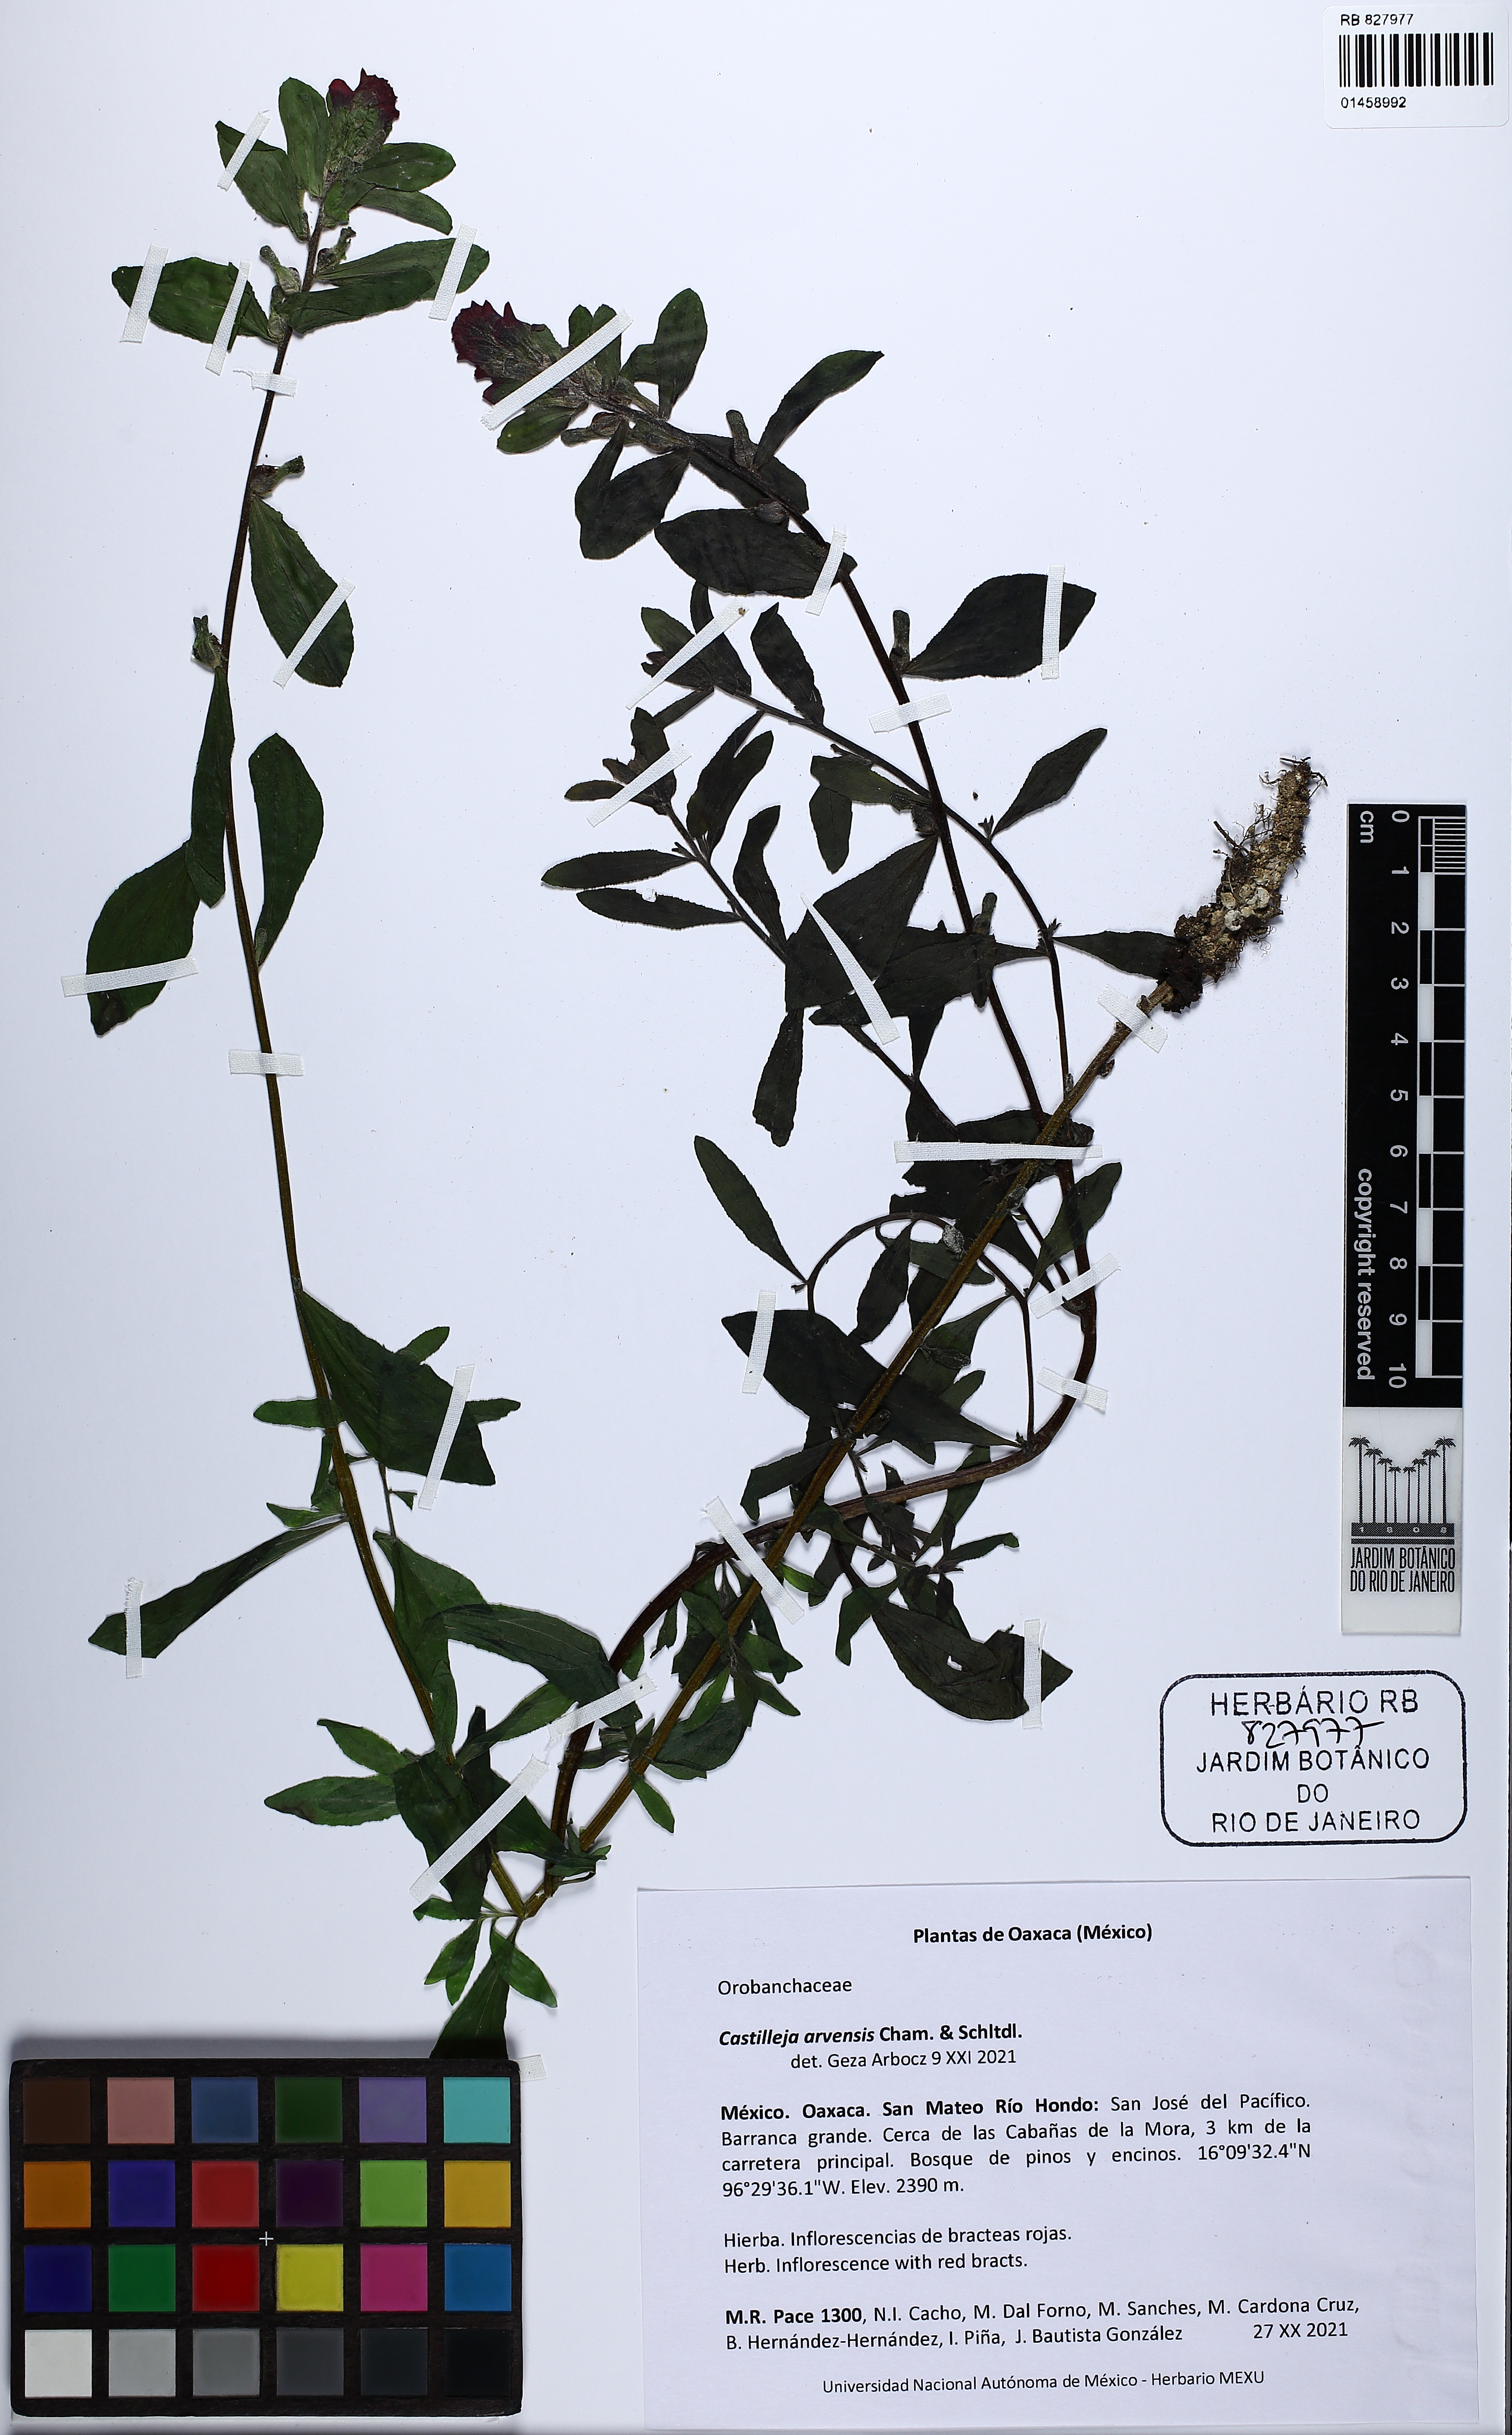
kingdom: Plantae
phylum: Tracheophyta
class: Magnoliopsida
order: Lamiales
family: Orobanchaceae
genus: Castilleja
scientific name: Castilleja arvensis
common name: Indian paintbrush
